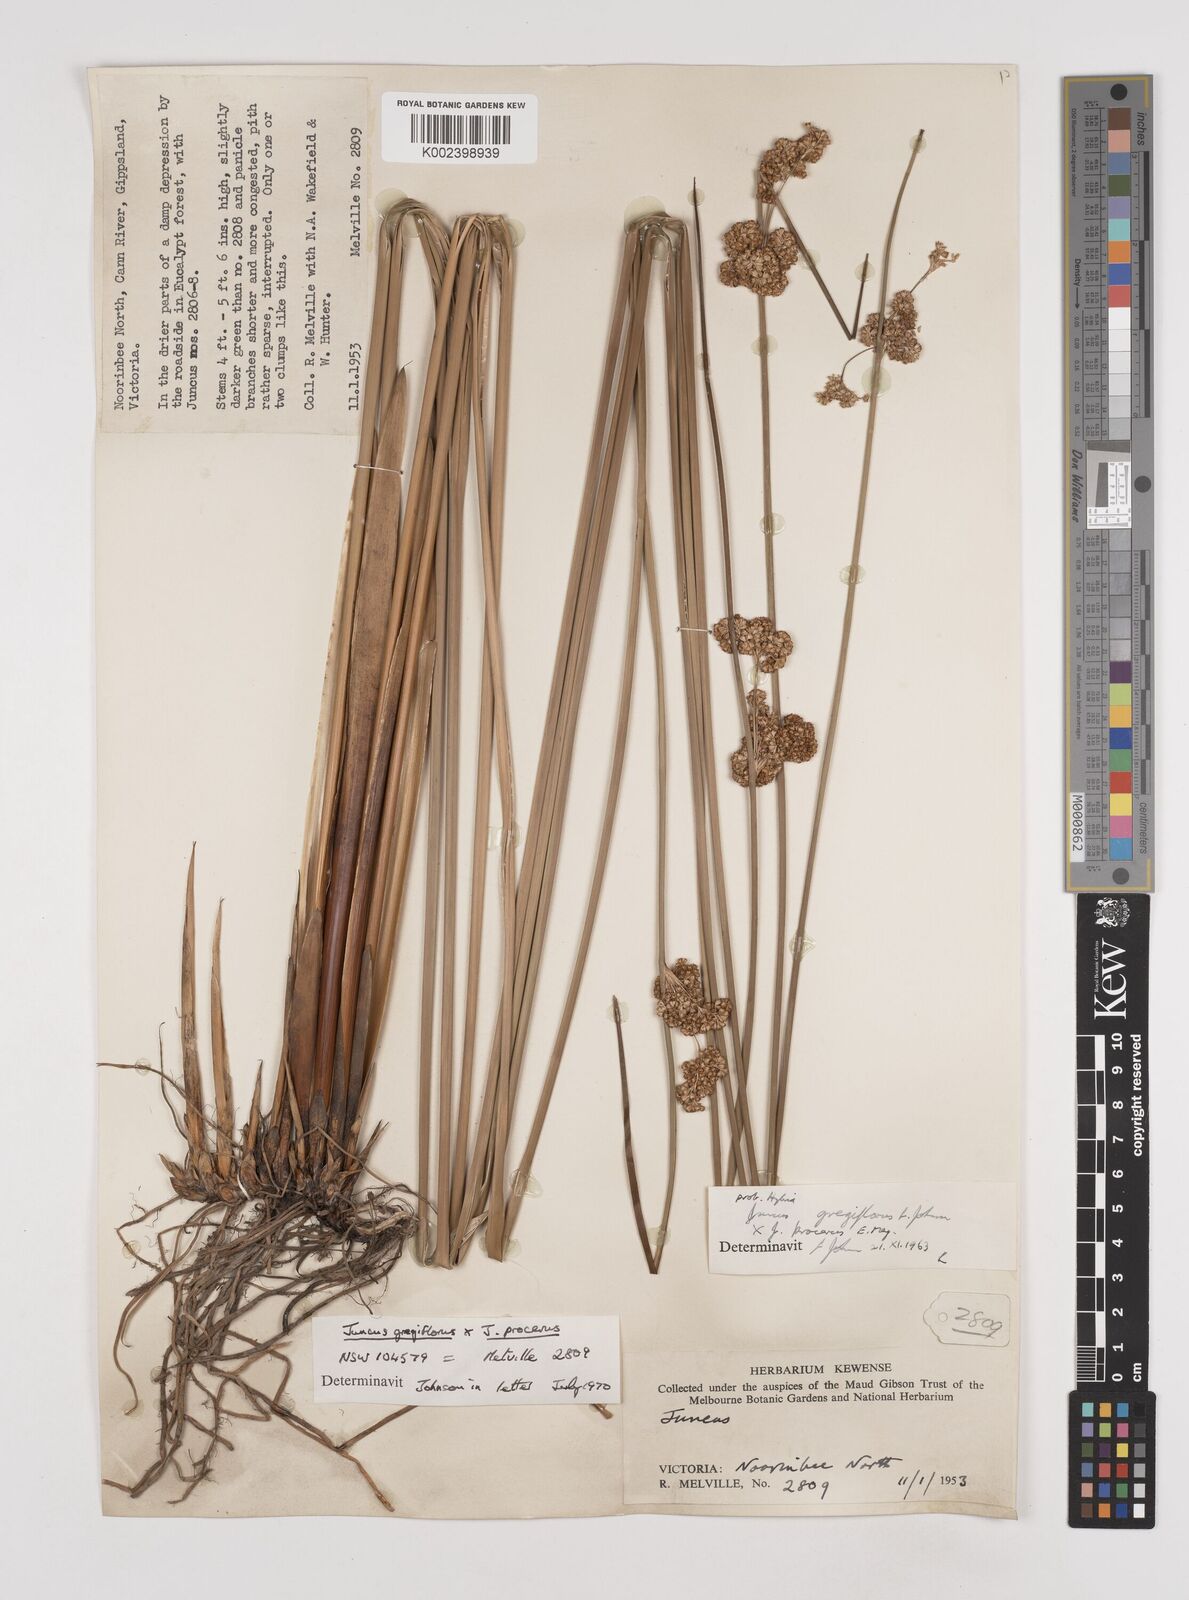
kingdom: Plantae
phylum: Tracheophyta
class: Liliopsida
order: Poales
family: Juncaceae
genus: Juncus
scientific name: Juncus gregiflorus
